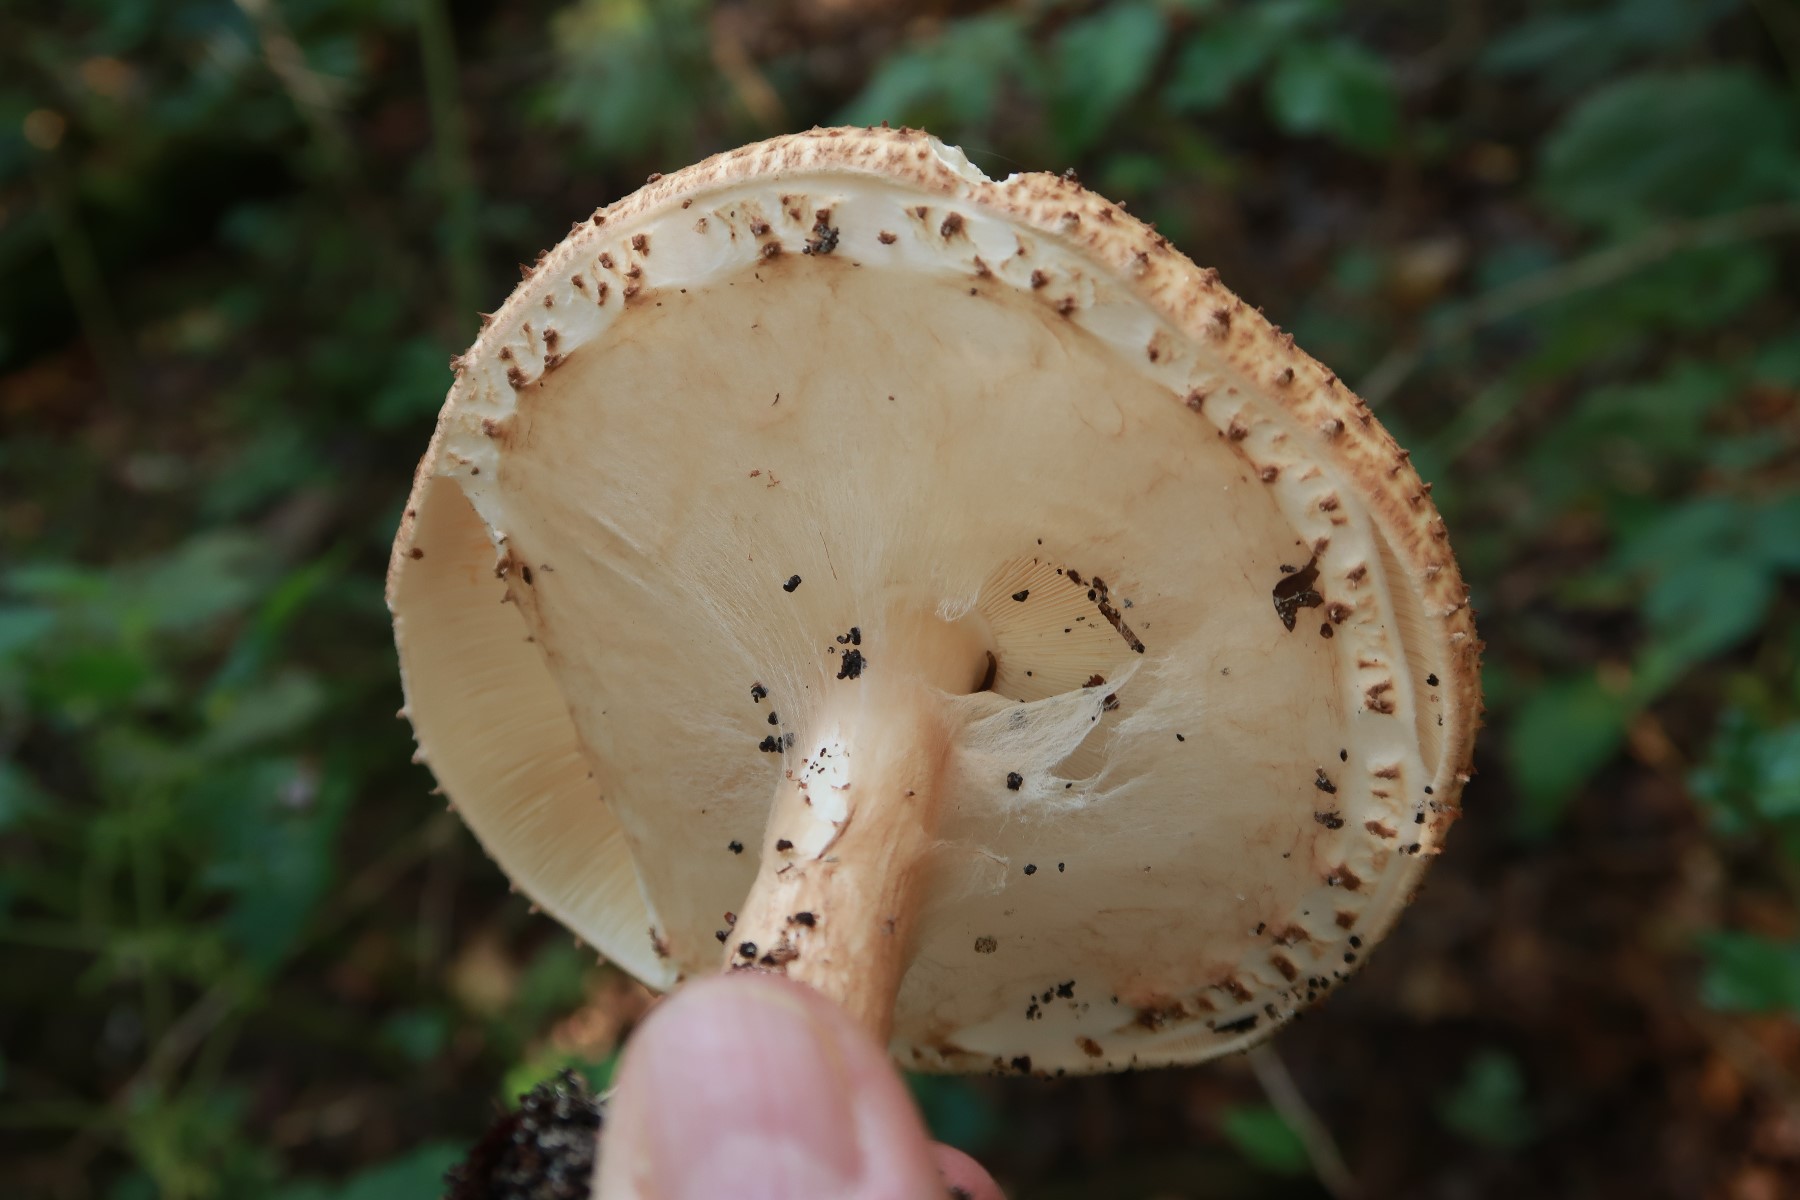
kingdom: Fungi
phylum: Basidiomycota
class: Agaricomycetes
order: Agaricales
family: Agaricaceae
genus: Echinoderma
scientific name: Echinoderma asperum
